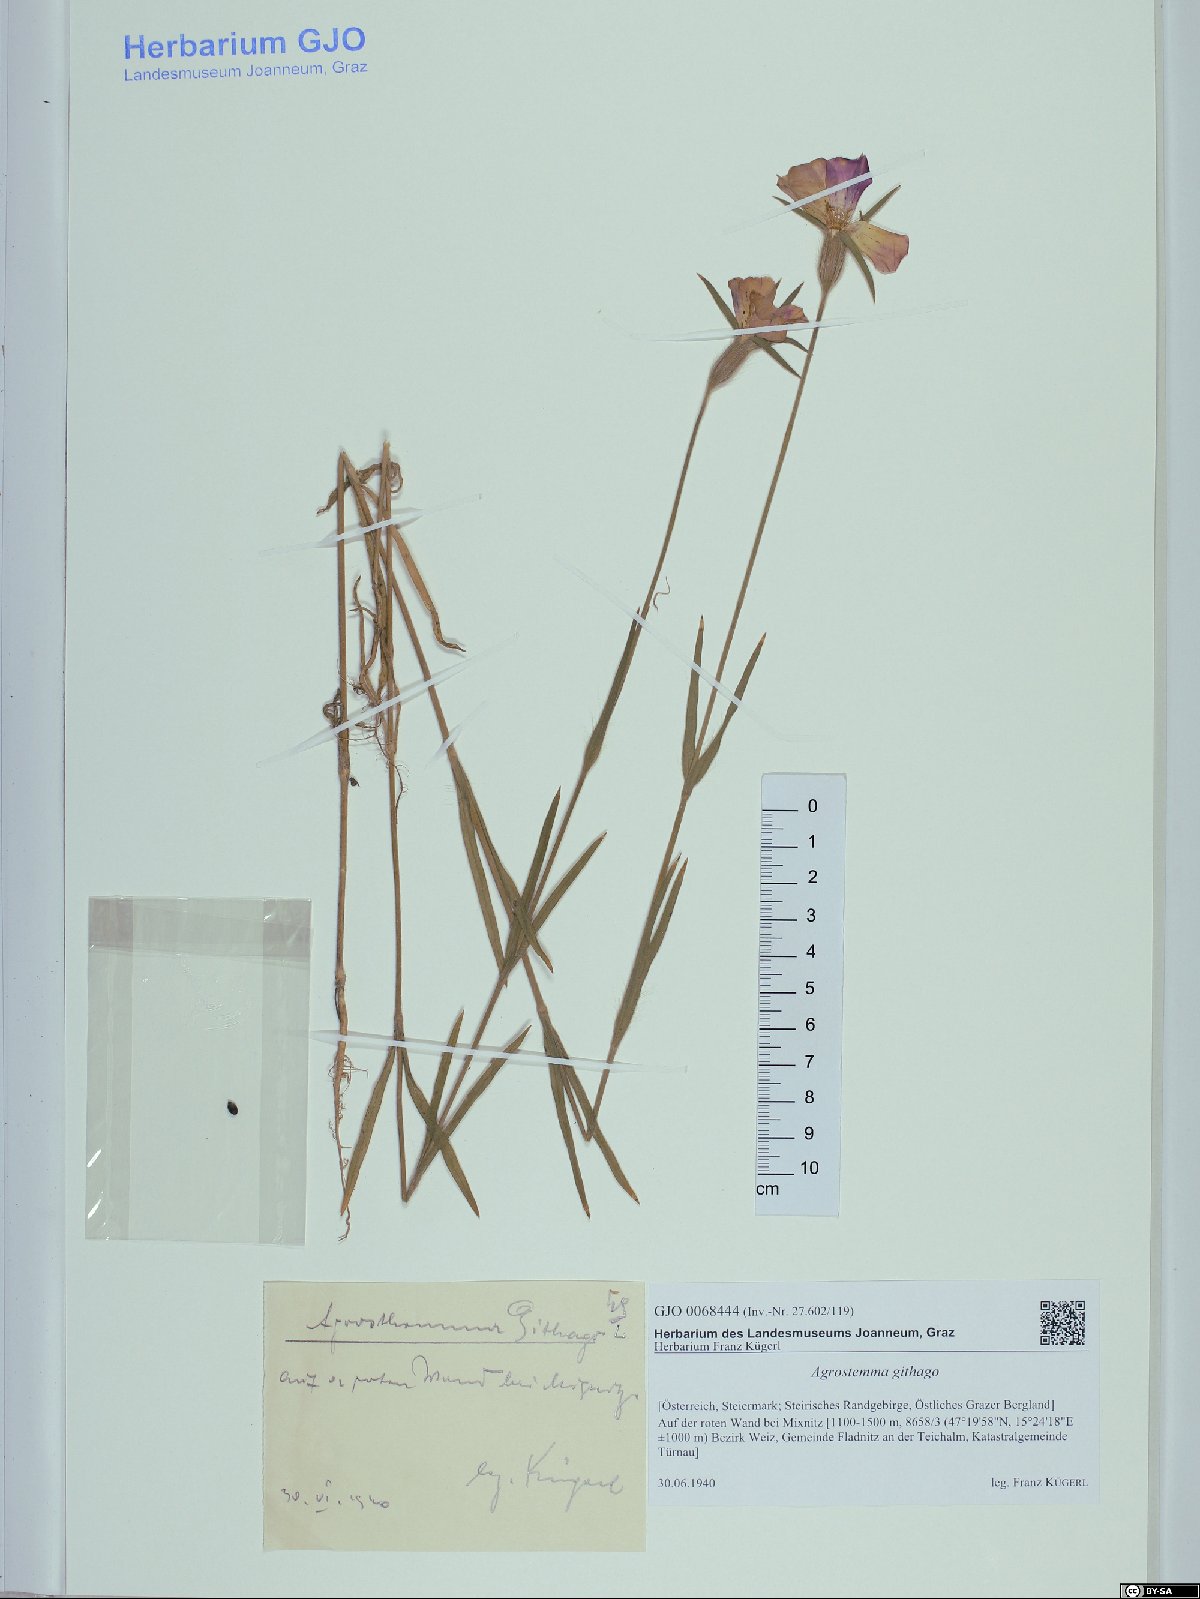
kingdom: Plantae
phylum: Tracheophyta
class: Magnoliopsida
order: Caryophyllales
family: Caryophyllaceae
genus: Agrostemma
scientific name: Agrostemma githago
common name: Common corncockle
